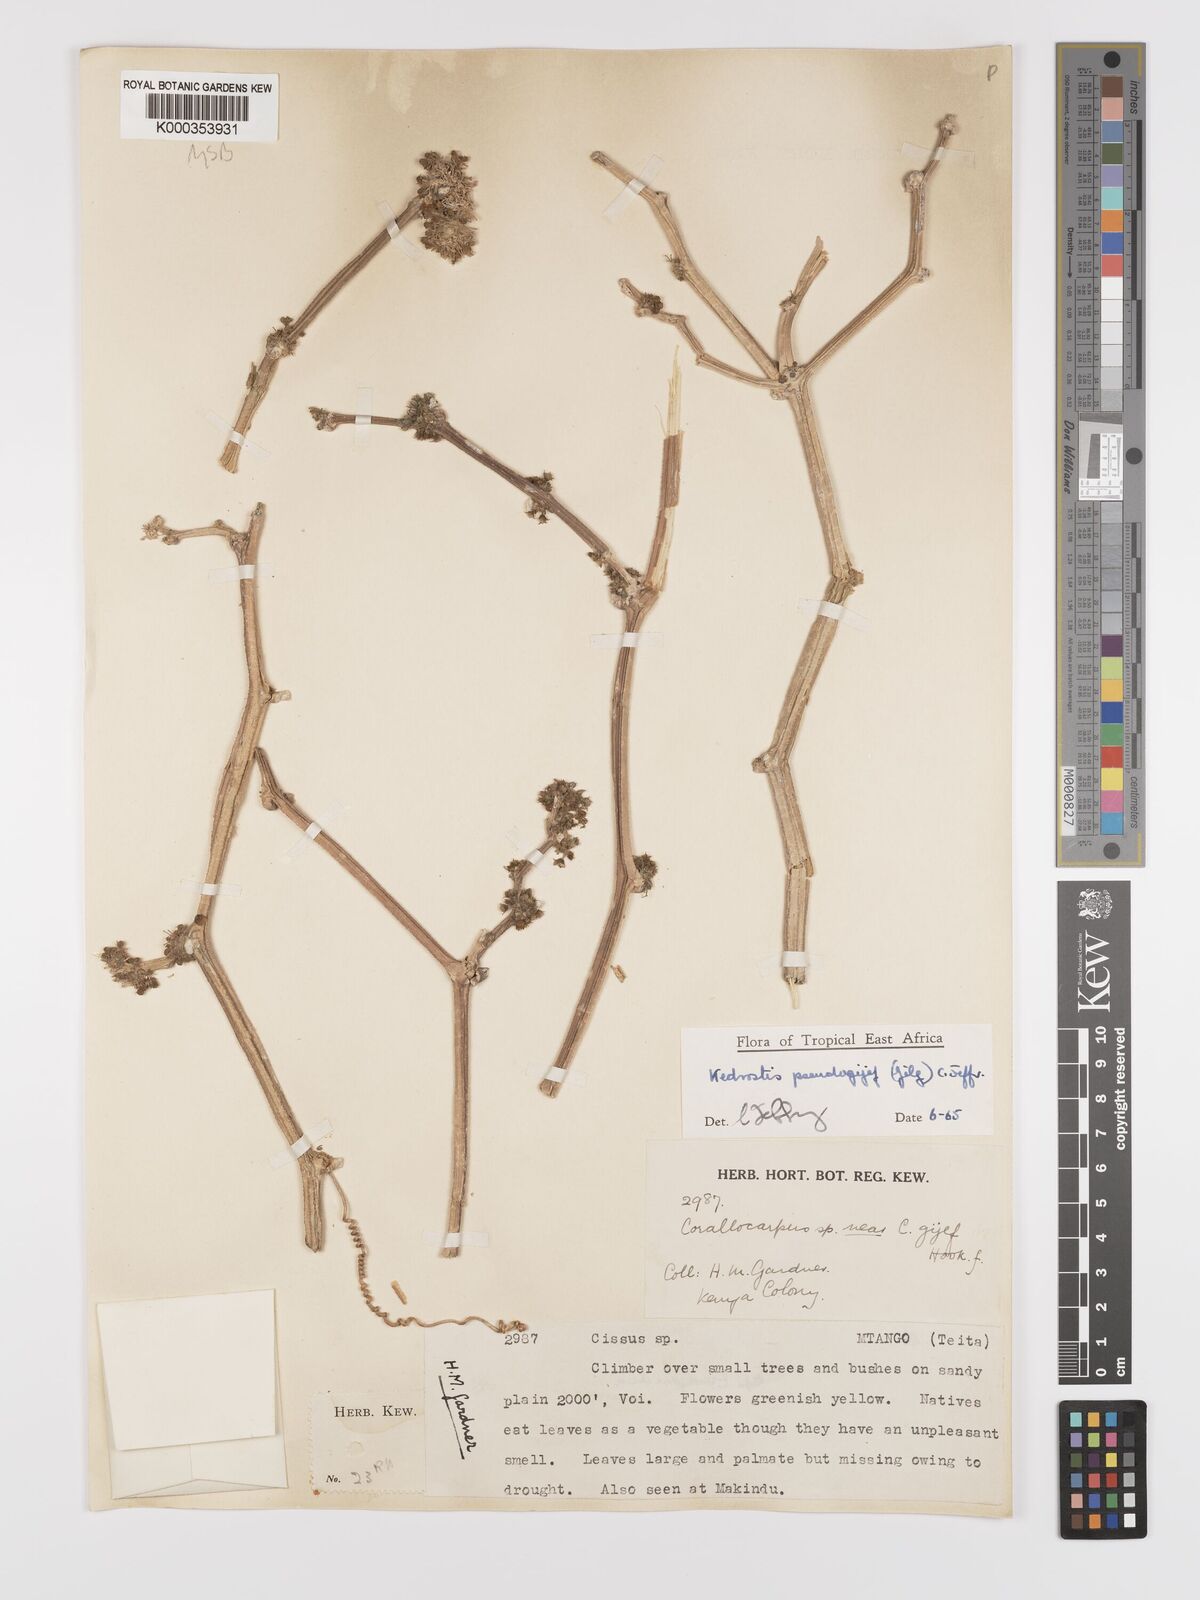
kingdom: Plantae
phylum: Tracheophyta
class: Magnoliopsida
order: Cucurbitales
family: Cucurbitaceae
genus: Kedrostis
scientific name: Kedrostis pseudogijef
